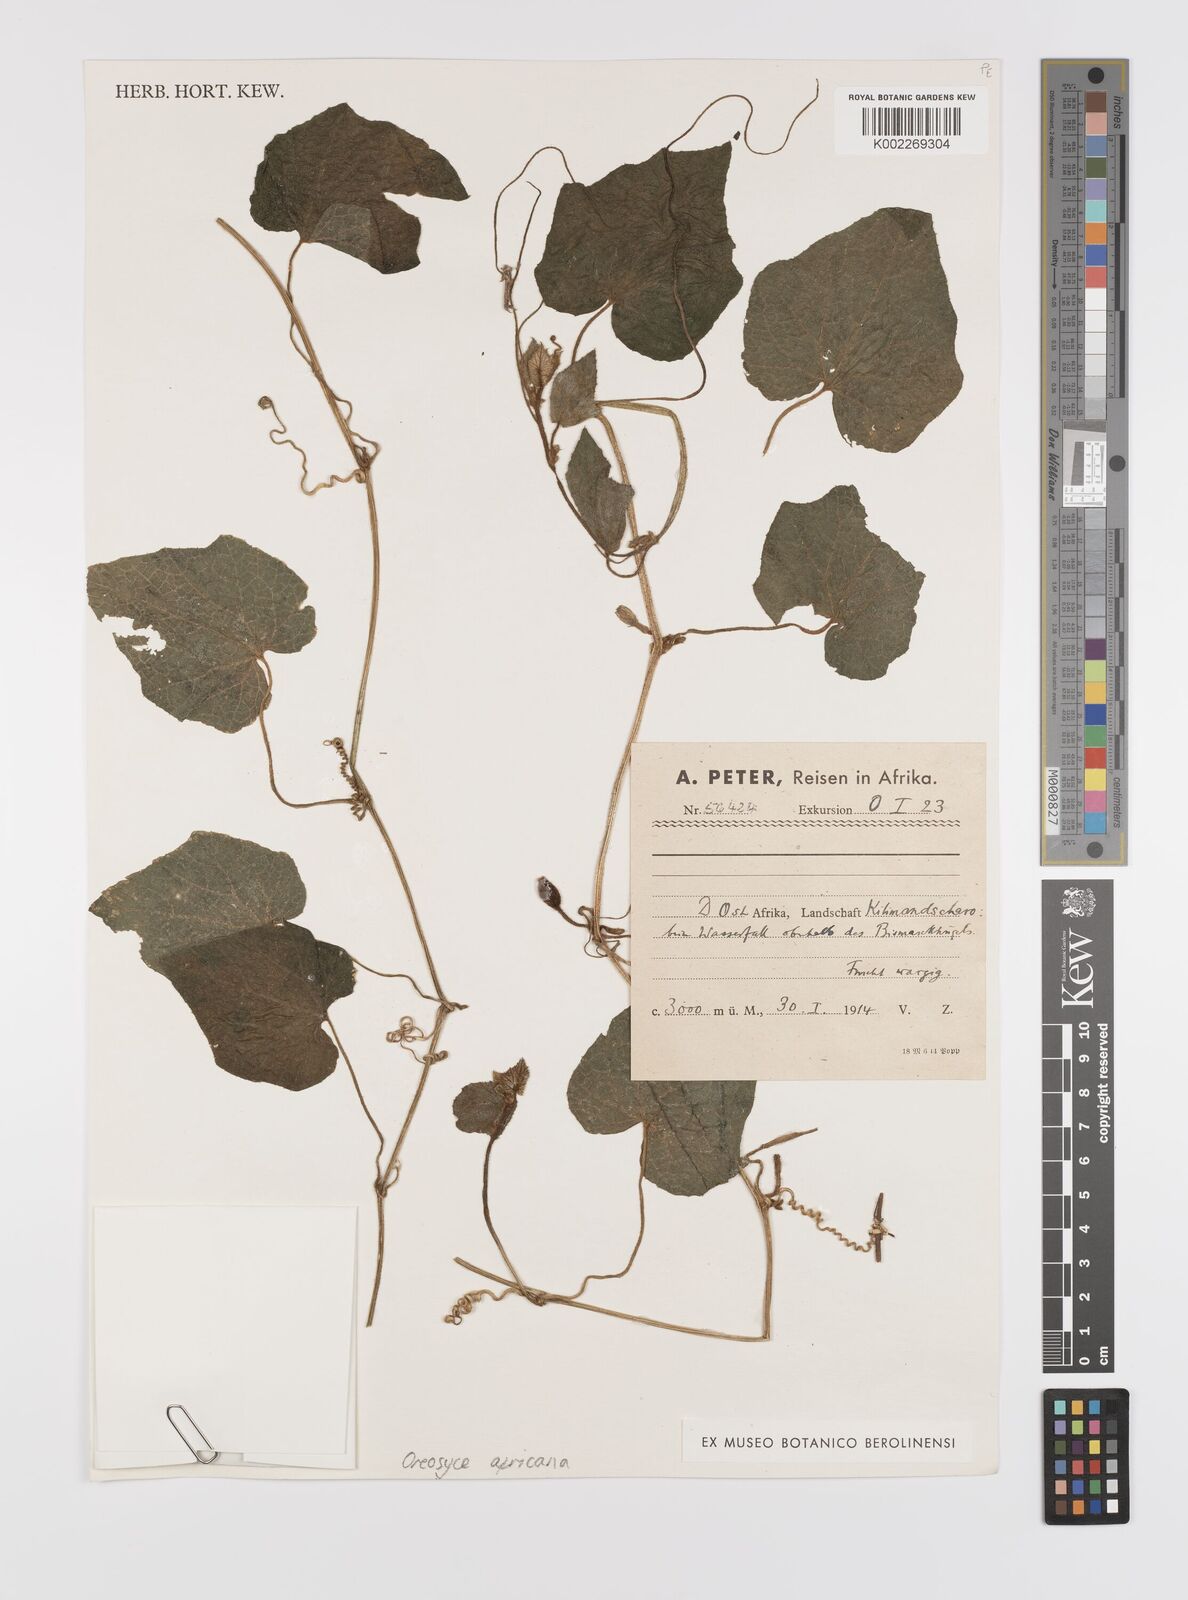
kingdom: Plantae
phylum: Tracheophyta
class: Magnoliopsida
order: Cucurbitales
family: Cucurbitaceae
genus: Cucumis
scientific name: Cucumis oreosyce
